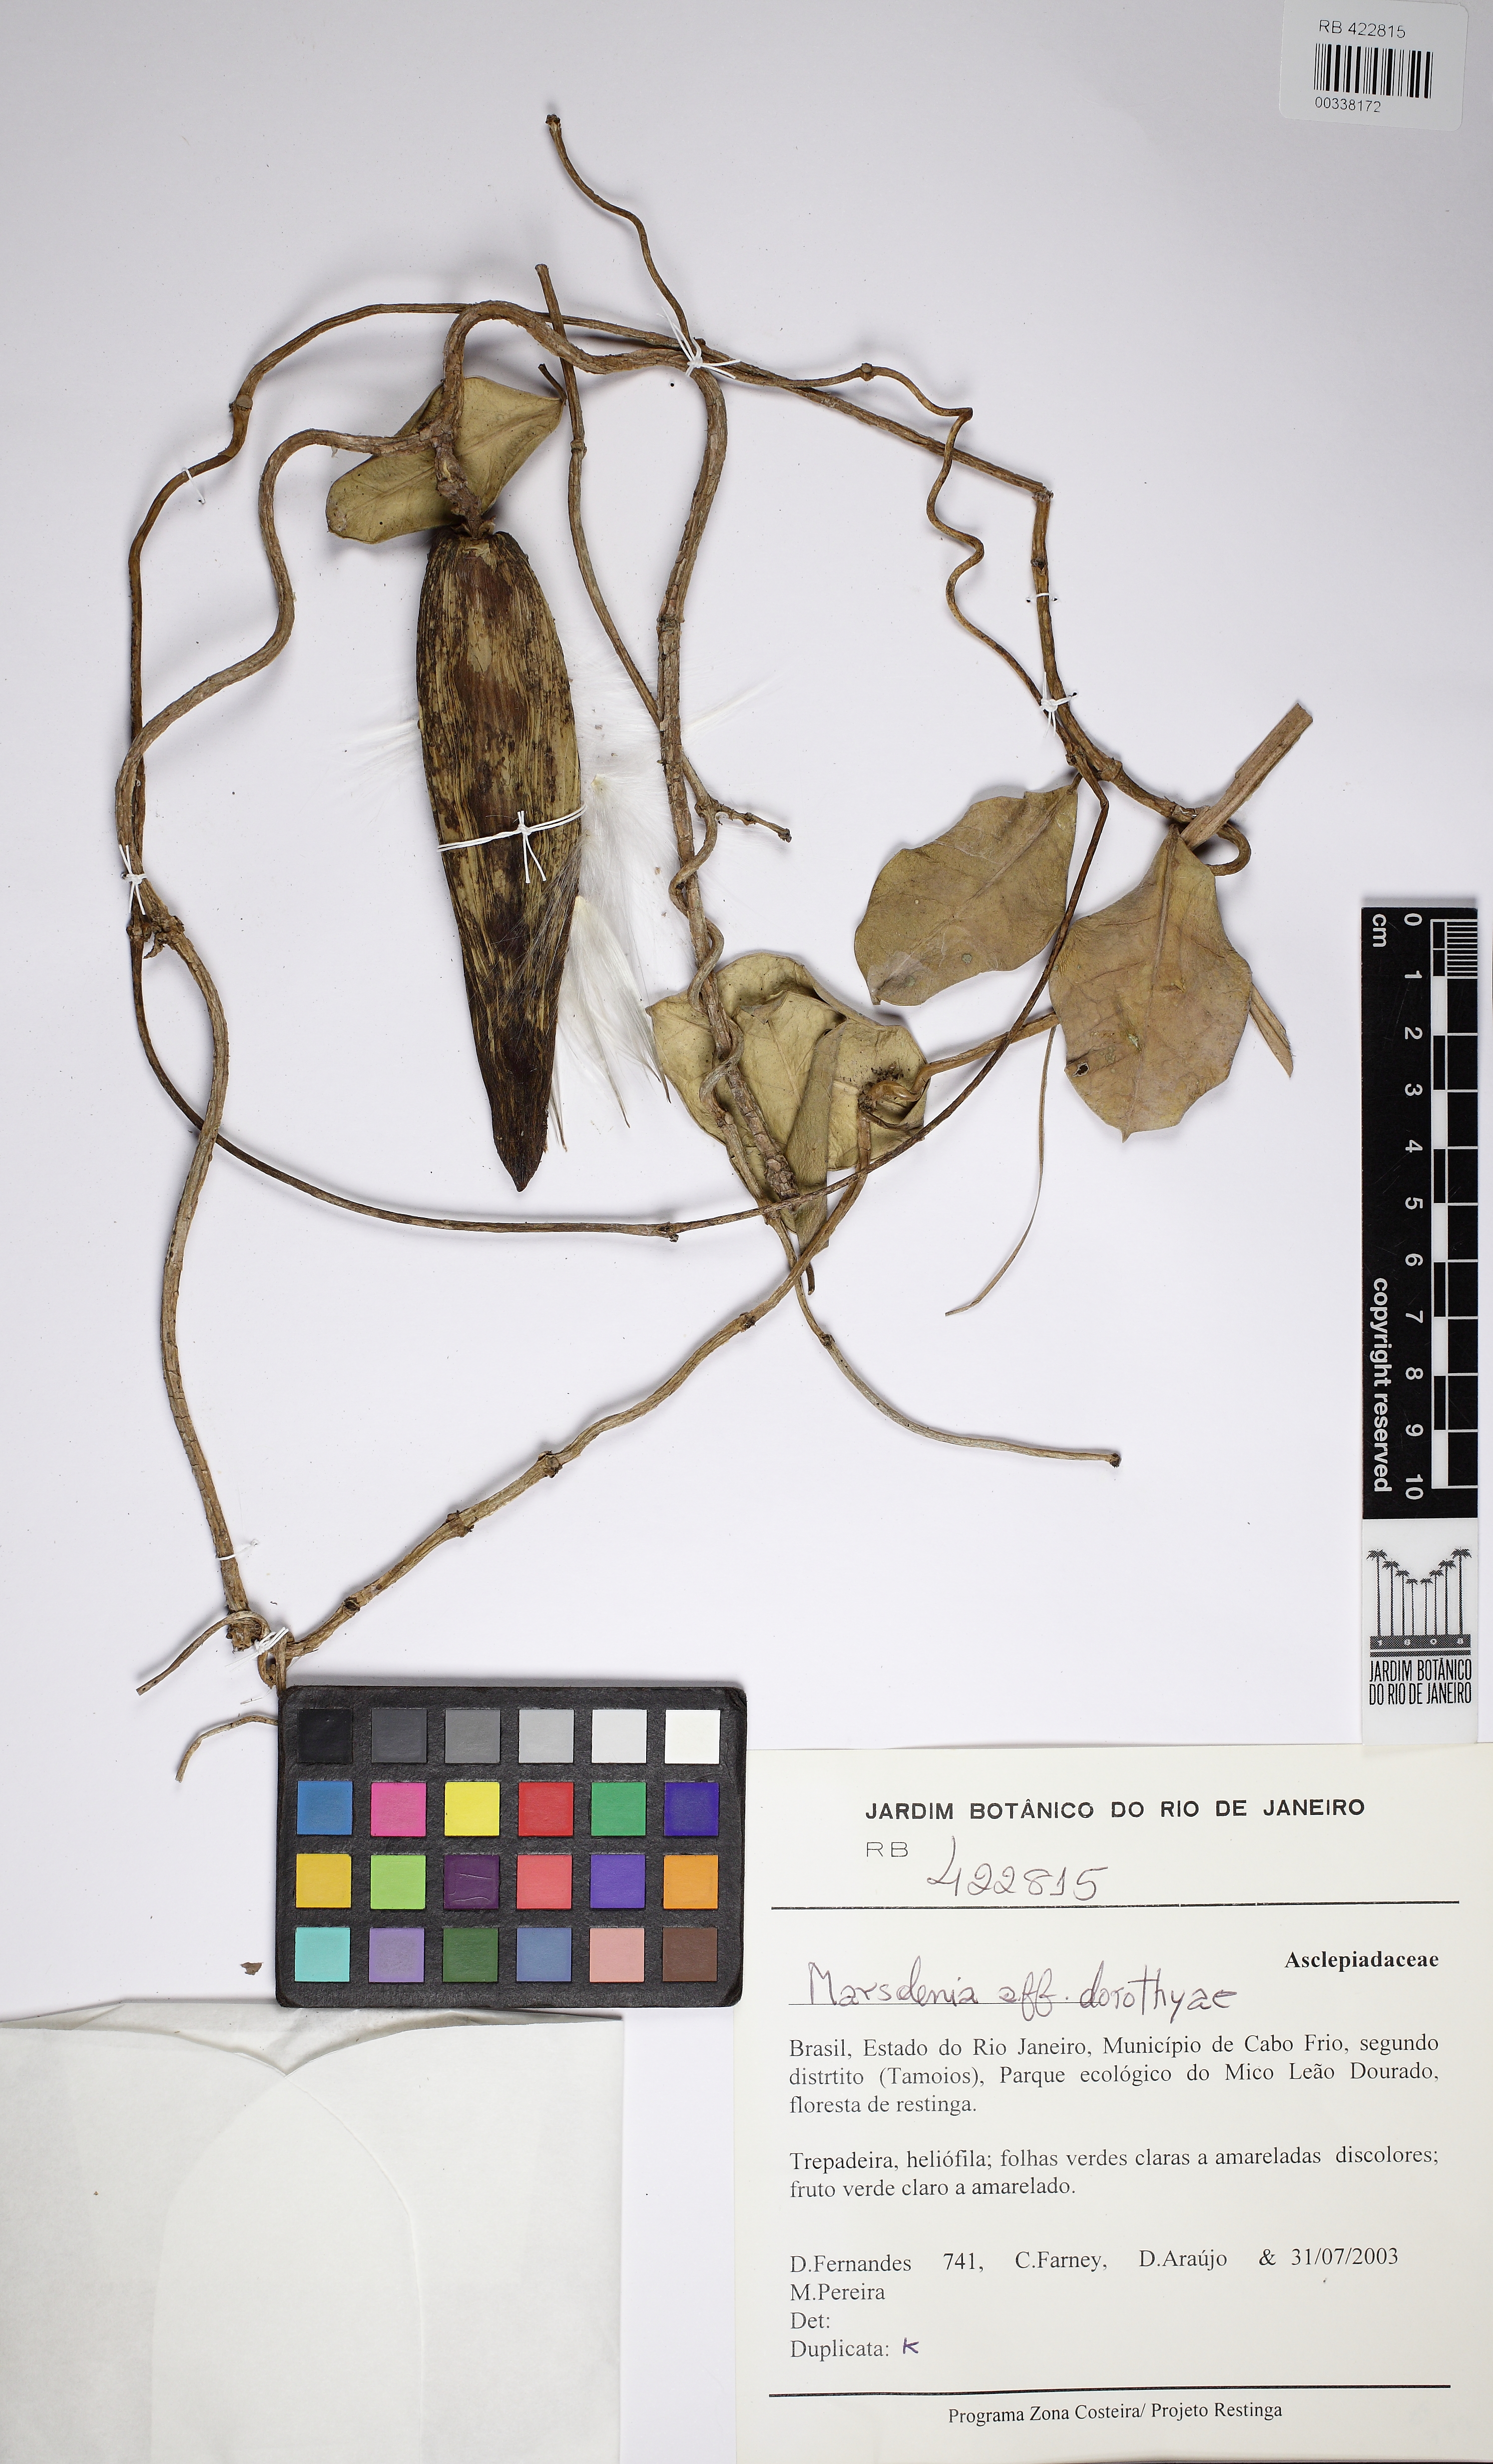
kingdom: Plantae
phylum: Tracheophyta
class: Magnoliopsida
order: Gentianales
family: Apocynaceae
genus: Ruehssia
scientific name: Ruehssia dorothyae
